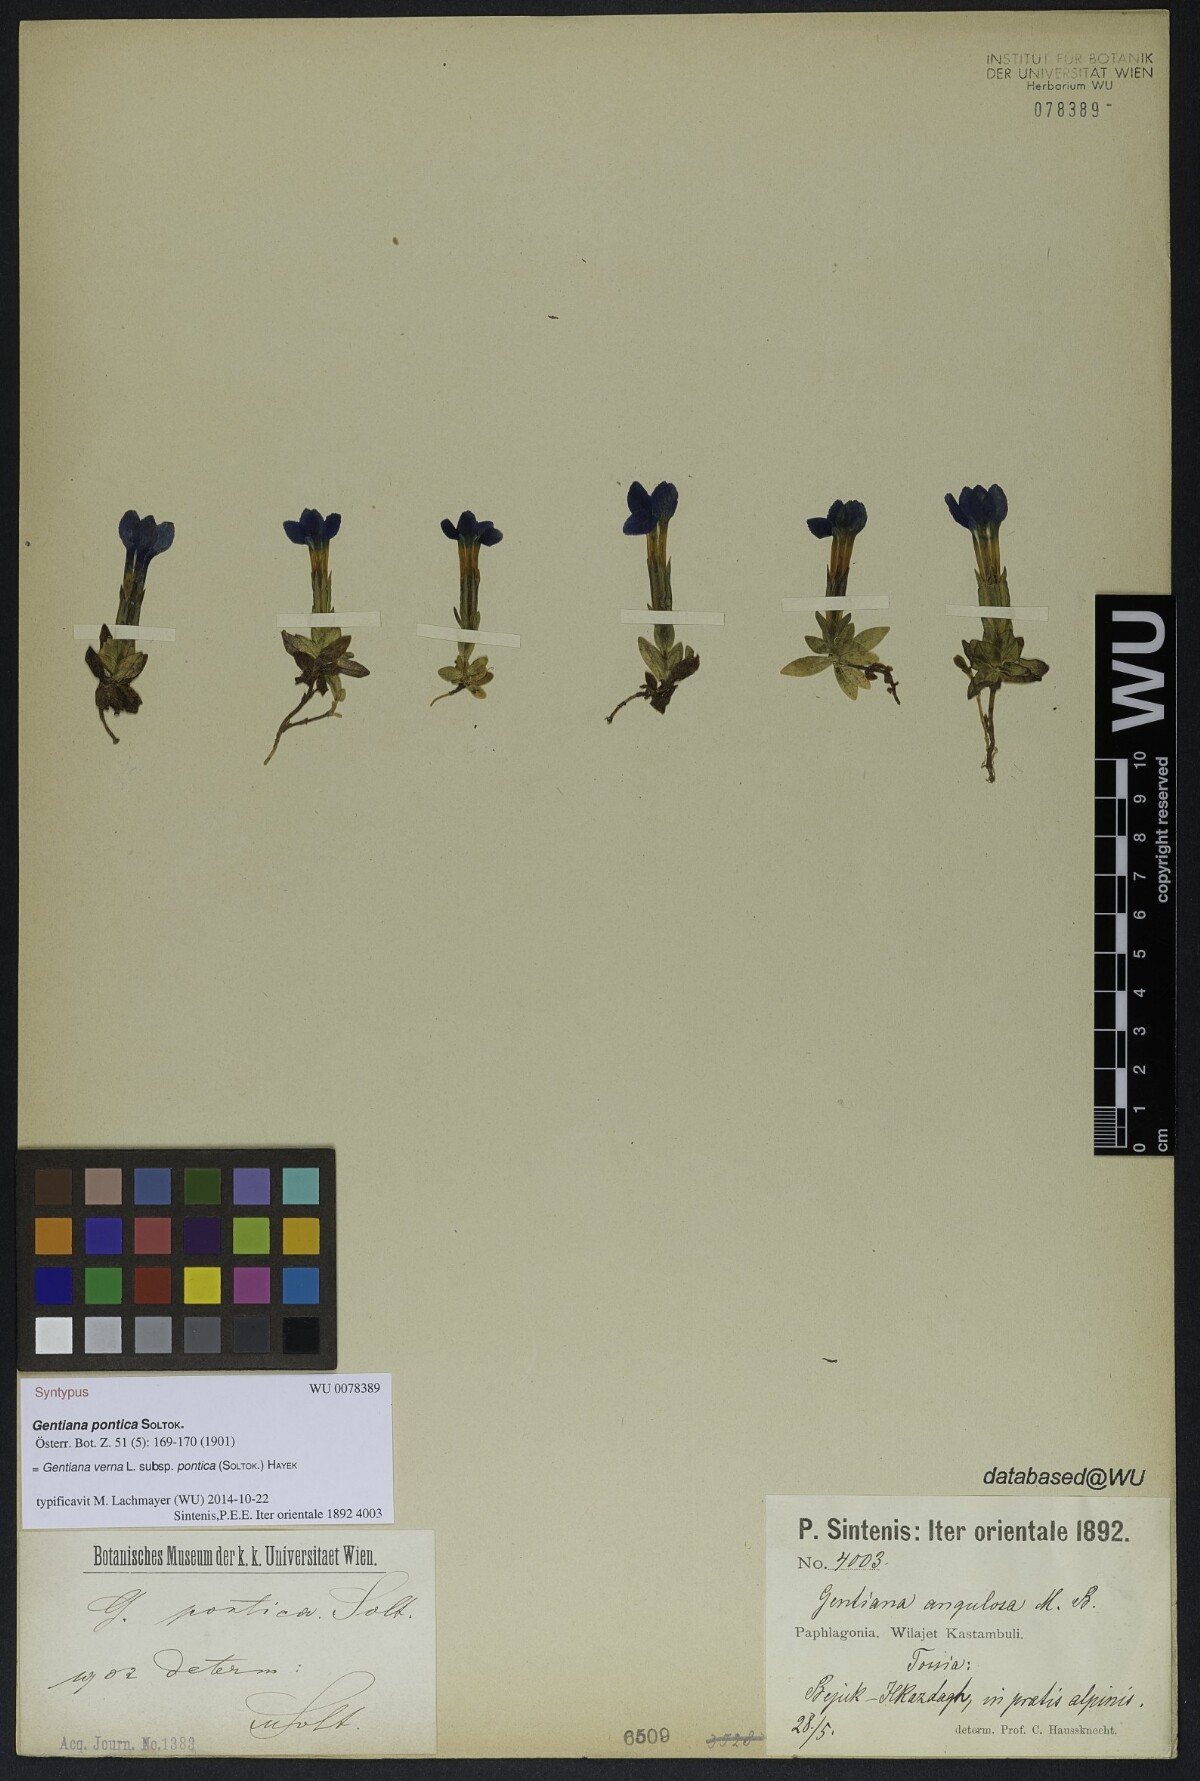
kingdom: Plantae
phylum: Tracheophyta
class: Magnoliopsida
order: Gentianales
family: Gentianaceae
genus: Gentiana
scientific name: Gentiana verna
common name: Spring gentian
